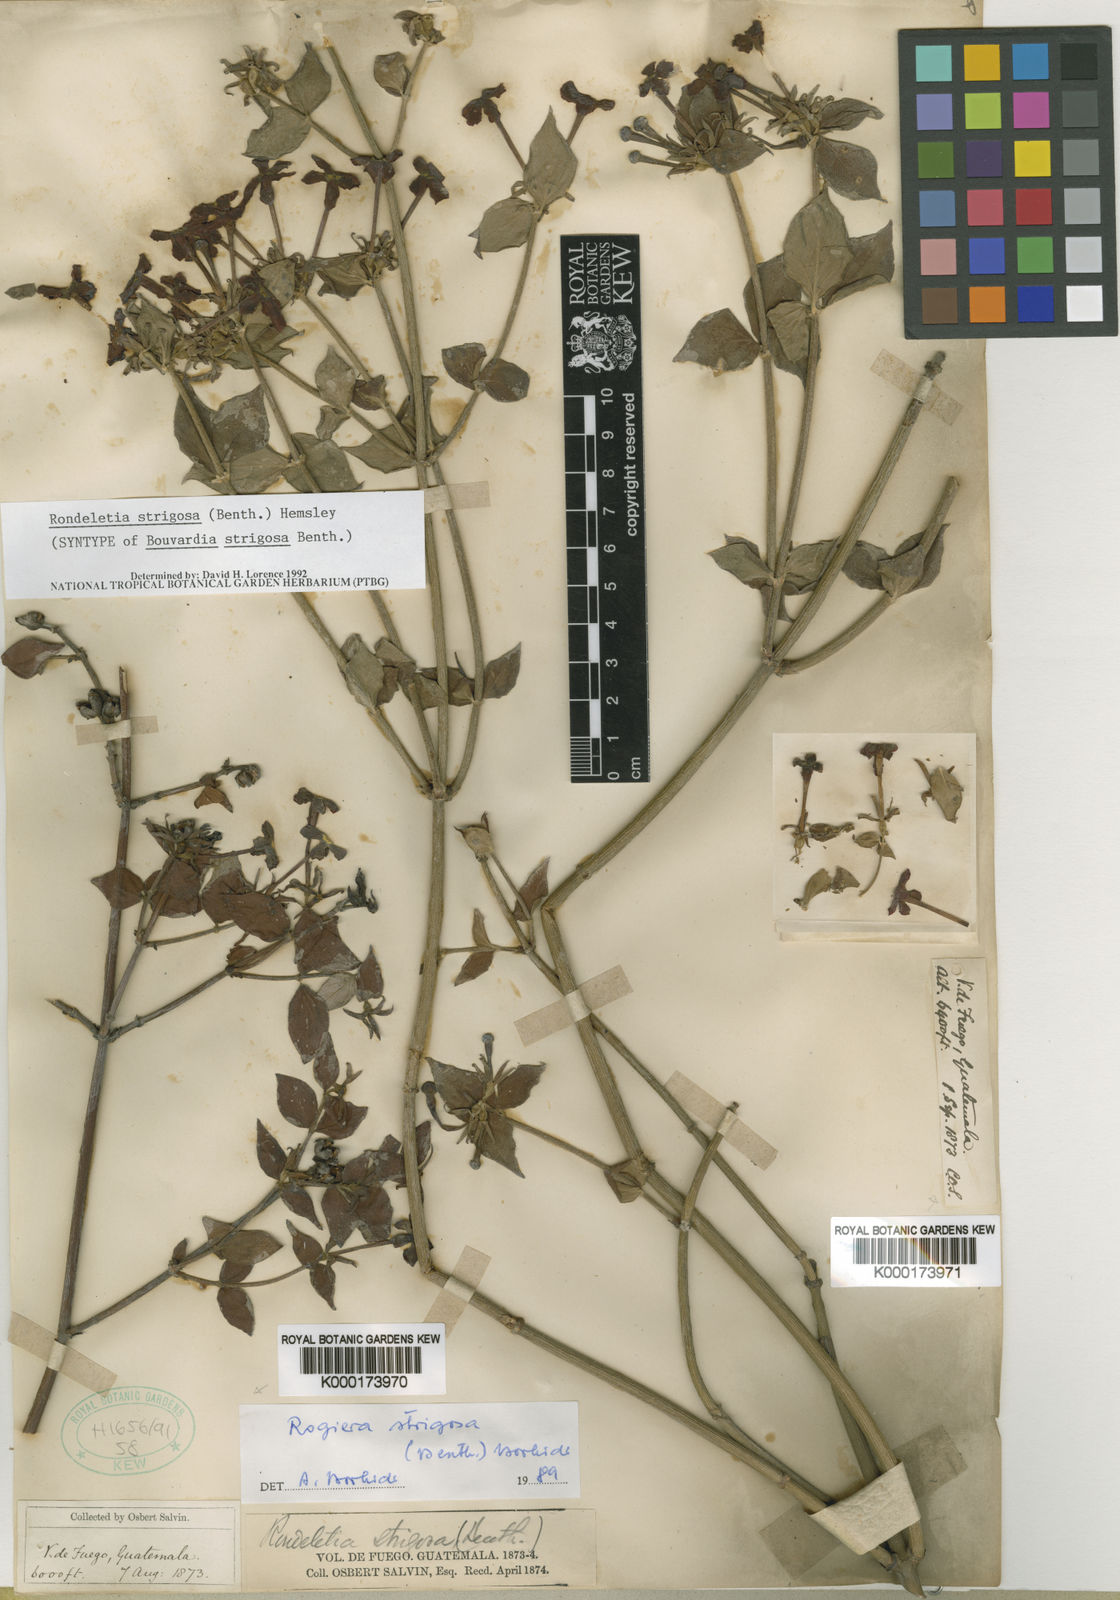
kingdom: Plantae
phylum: Tracheophyta
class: Magnoliopsida
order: Gentianales
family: Rubiaceae
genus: Rovaeanthus
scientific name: Rovaeanthus strigosus
